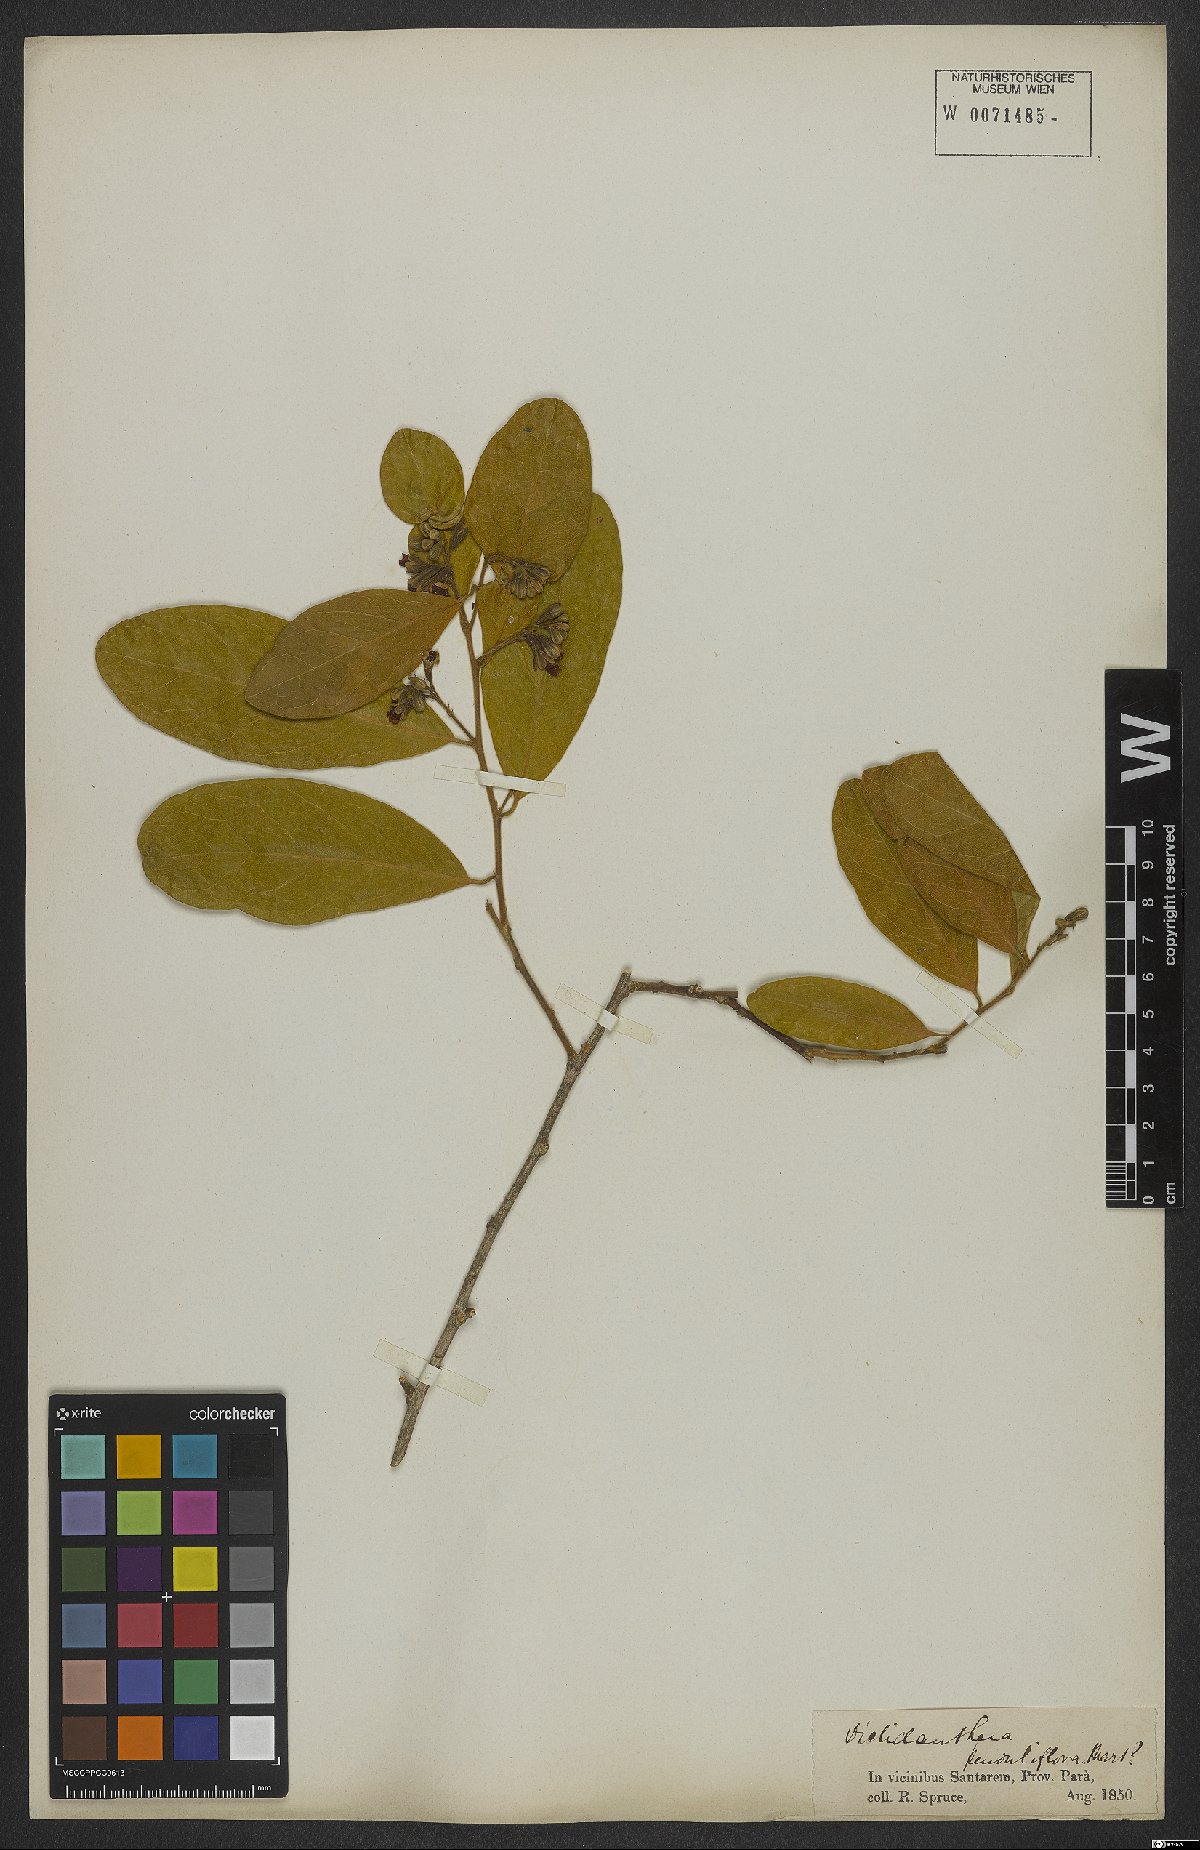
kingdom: Plantae
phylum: Tracheophyta
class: Magnoliopsida
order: Fabales
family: Polygalaceae
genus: Diclidanthera
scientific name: Diclidanthera penduliflora
